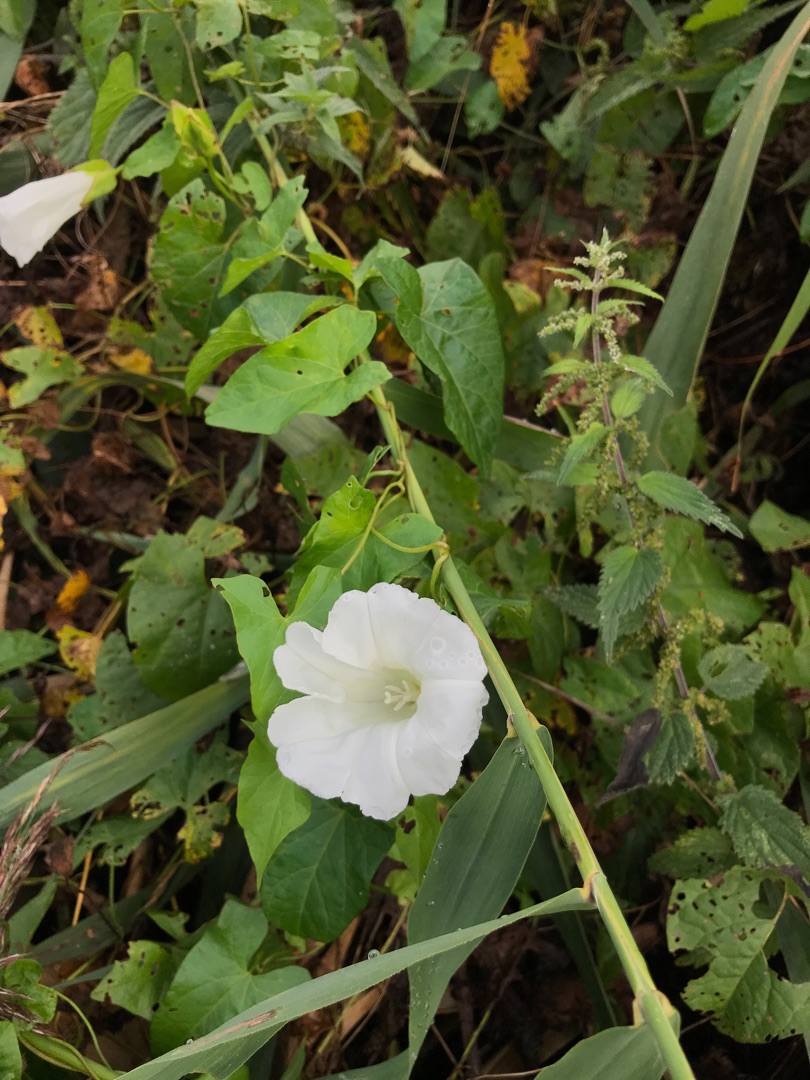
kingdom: Plantae
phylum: Tracheophyta
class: Magnoliopsida
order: Solanales
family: Convolvulaceae
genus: Calystegia
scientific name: Calystegia sepium
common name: Gærde-snerle
